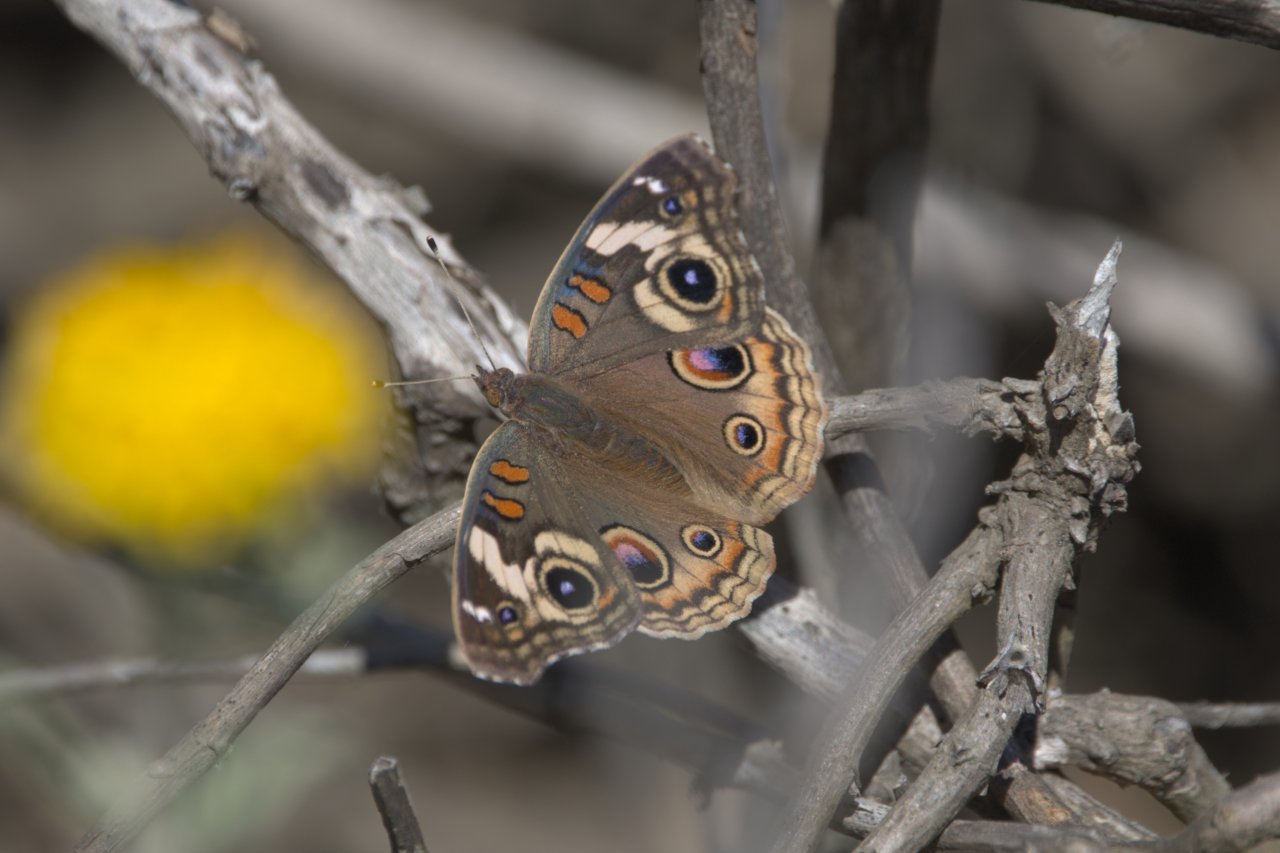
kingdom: Animalia
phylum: Arthropoda
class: Insecta
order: Lepidoptera
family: Nymphalidae
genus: Junonia
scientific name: Junonia coenia
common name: Common Buckeye
